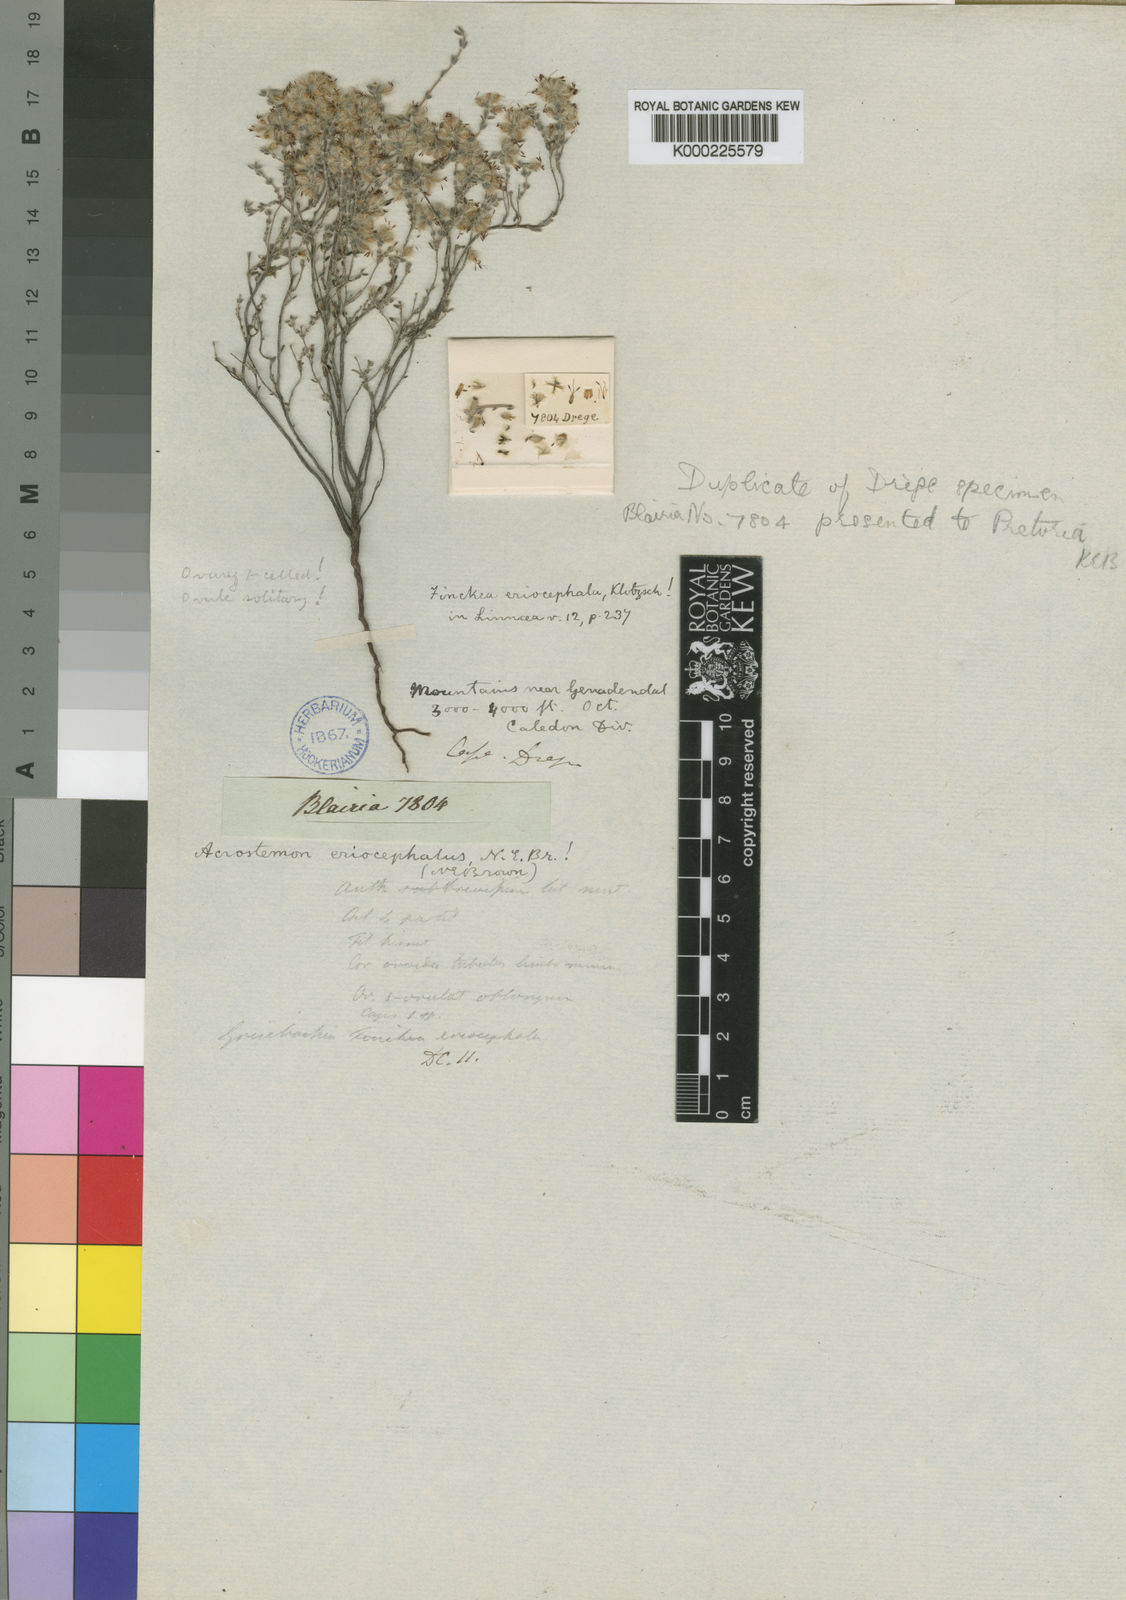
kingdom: Plantae
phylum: Tracheophyta
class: Magnoliopsida
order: Ericales
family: Ericaceae
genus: Erica
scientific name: Erica pilosiflora
